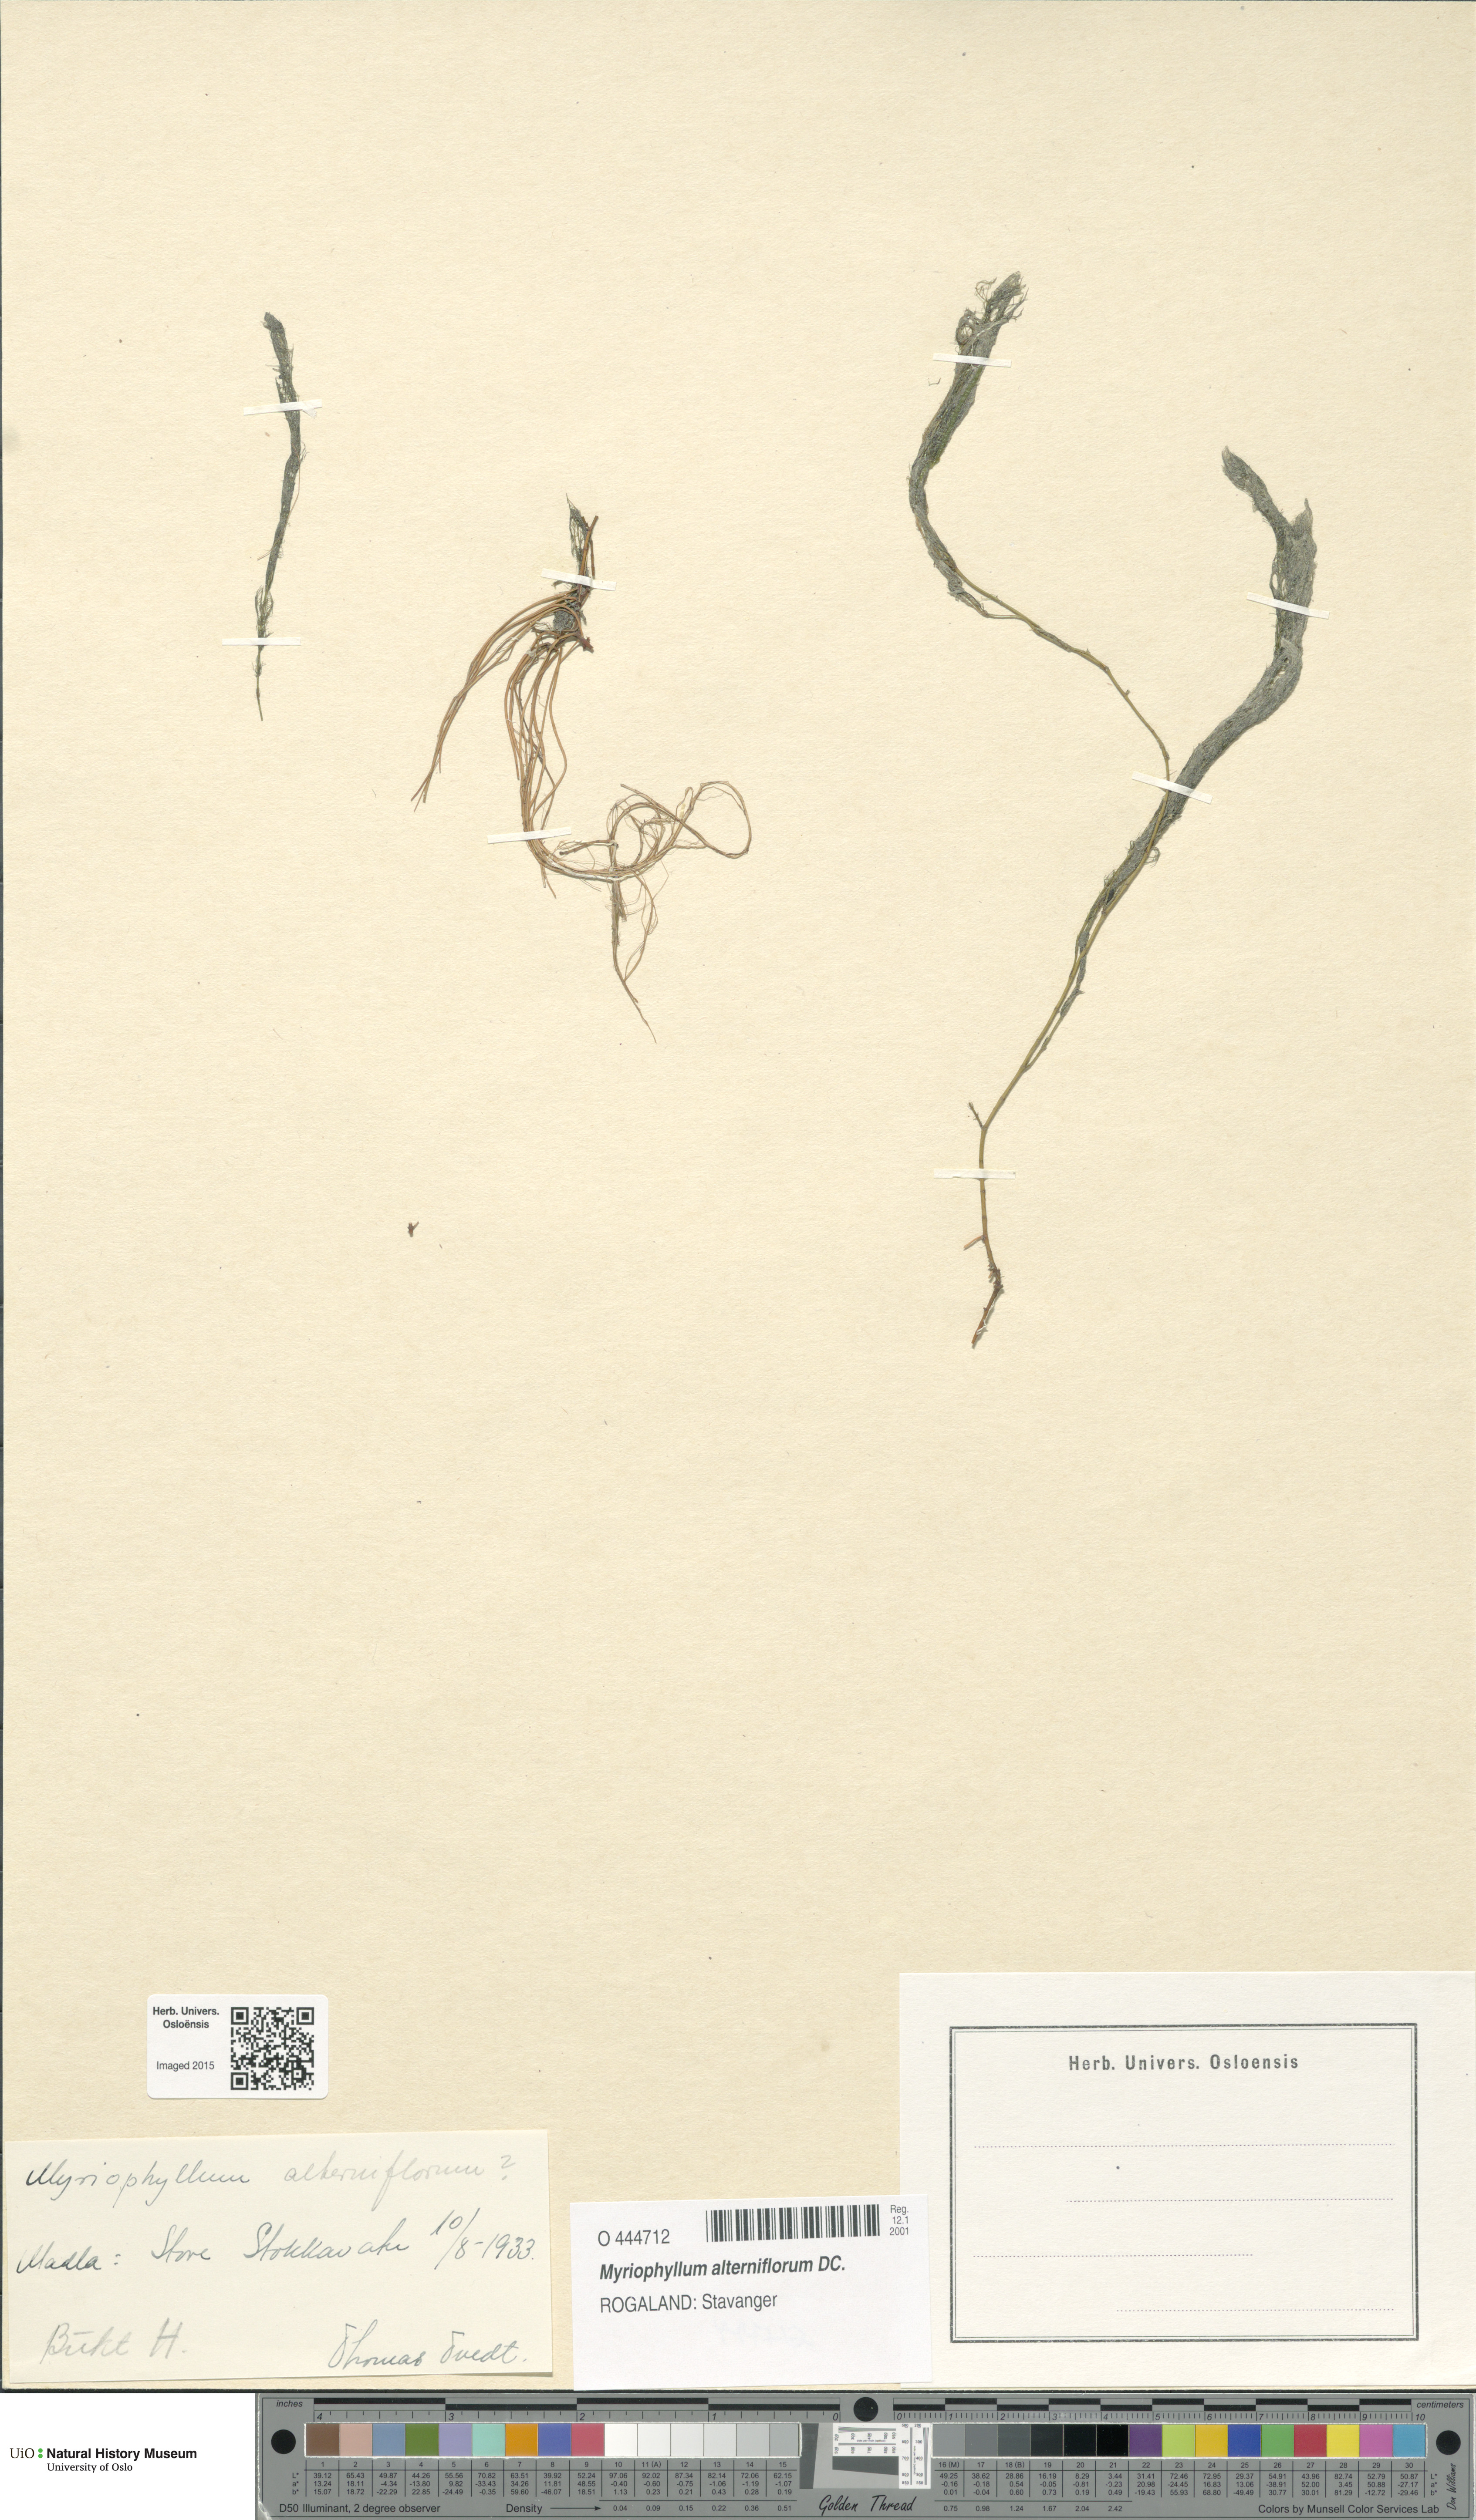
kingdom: Plantae
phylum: Tracheophyta
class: Magnoliopsida
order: Saxifragales
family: Haloragaceae
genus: Myriophyllum
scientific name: Myriophyllum alterniflorum
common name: Alternate water-milfoil
